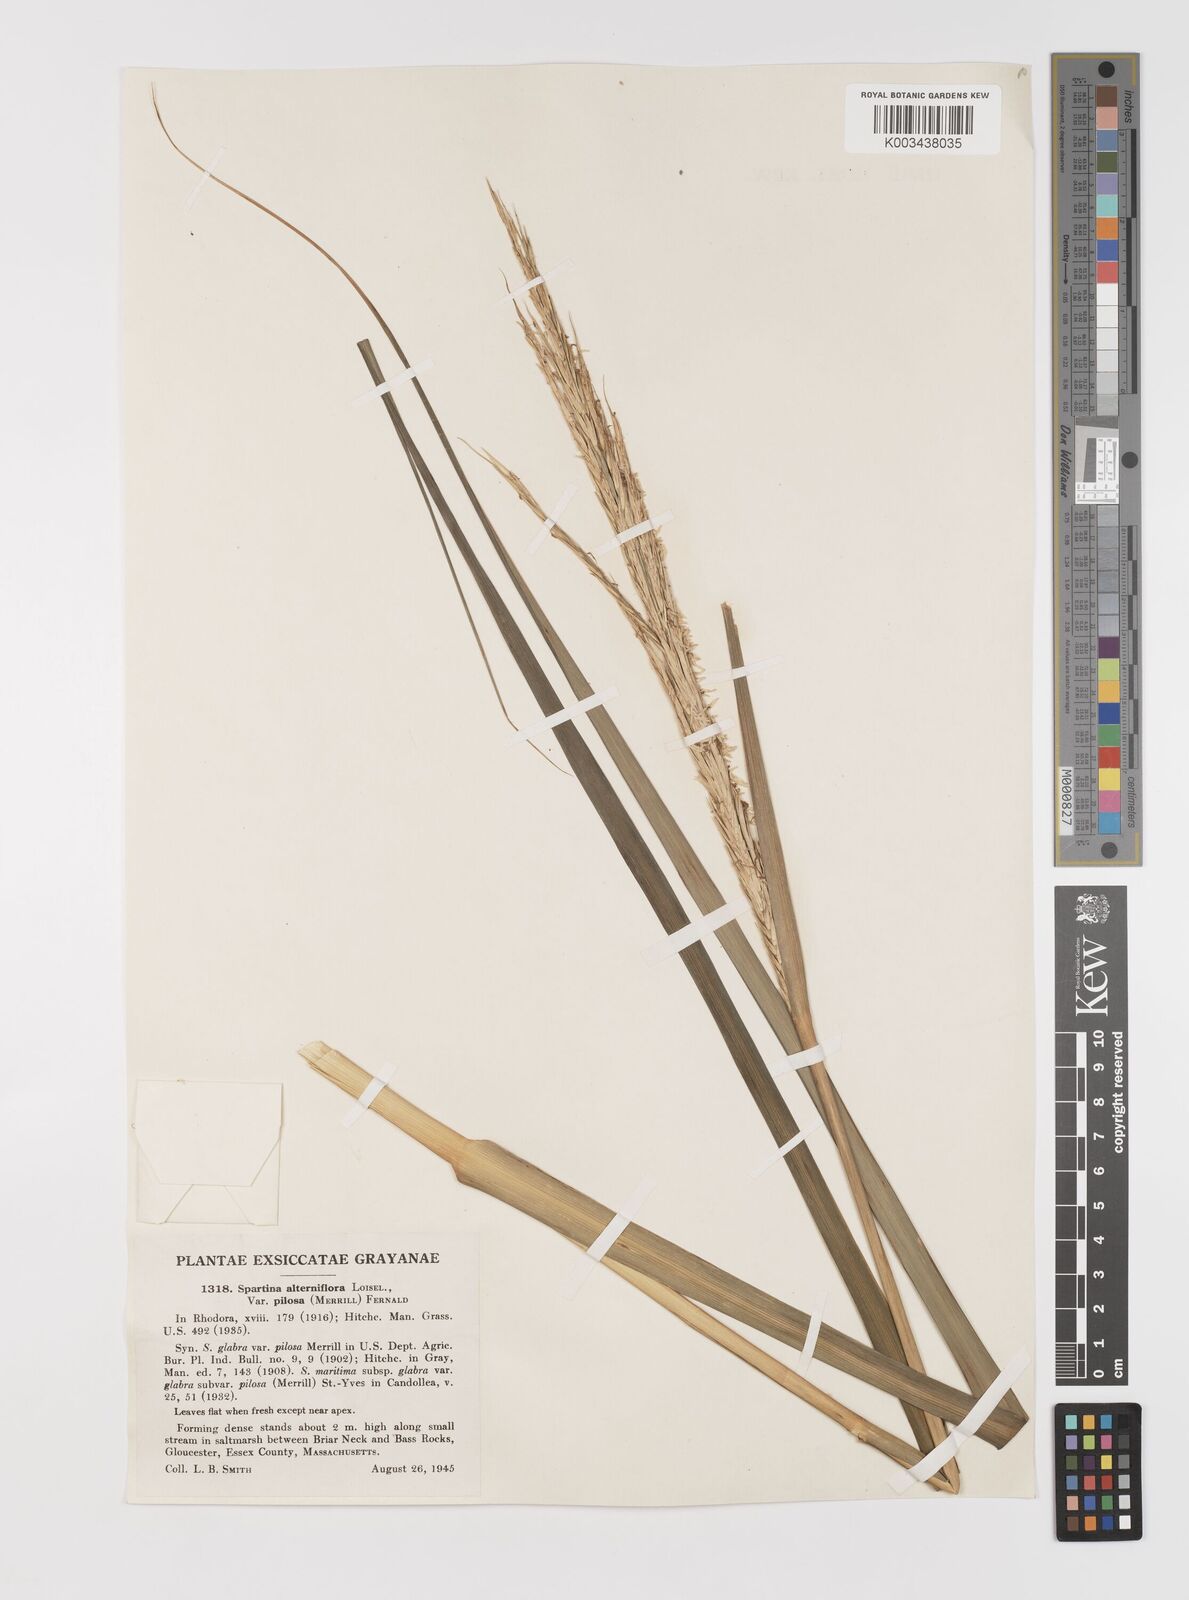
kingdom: Plantae
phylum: Tracheophyta
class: Liliopsida
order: Poales
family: Poaceae
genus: Sporobolus
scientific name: Sporobolus alterniflorus
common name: Atlantic cordgrass
